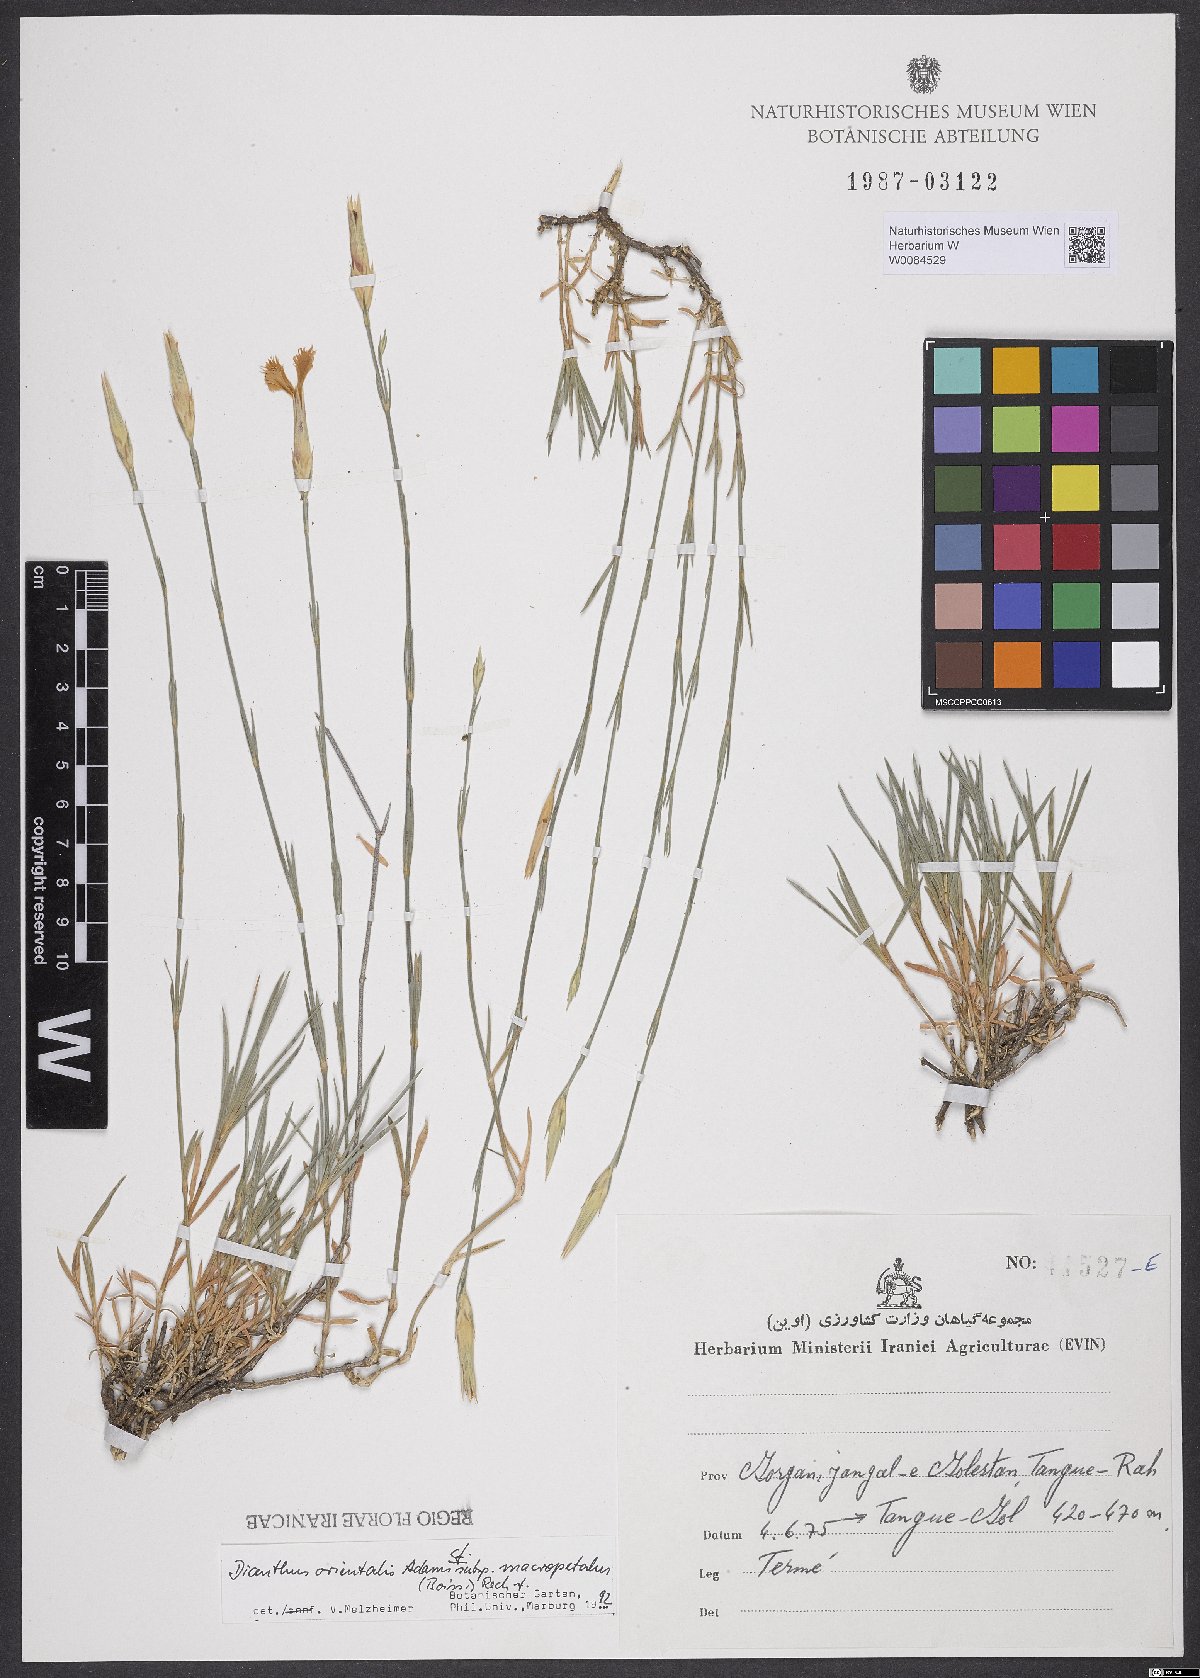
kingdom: Plantae
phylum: Tracheophyta
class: Magnoliopsida
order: Caryophyllales
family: Caryophyllaceae
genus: Dianthus
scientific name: Dianthus orientalis
